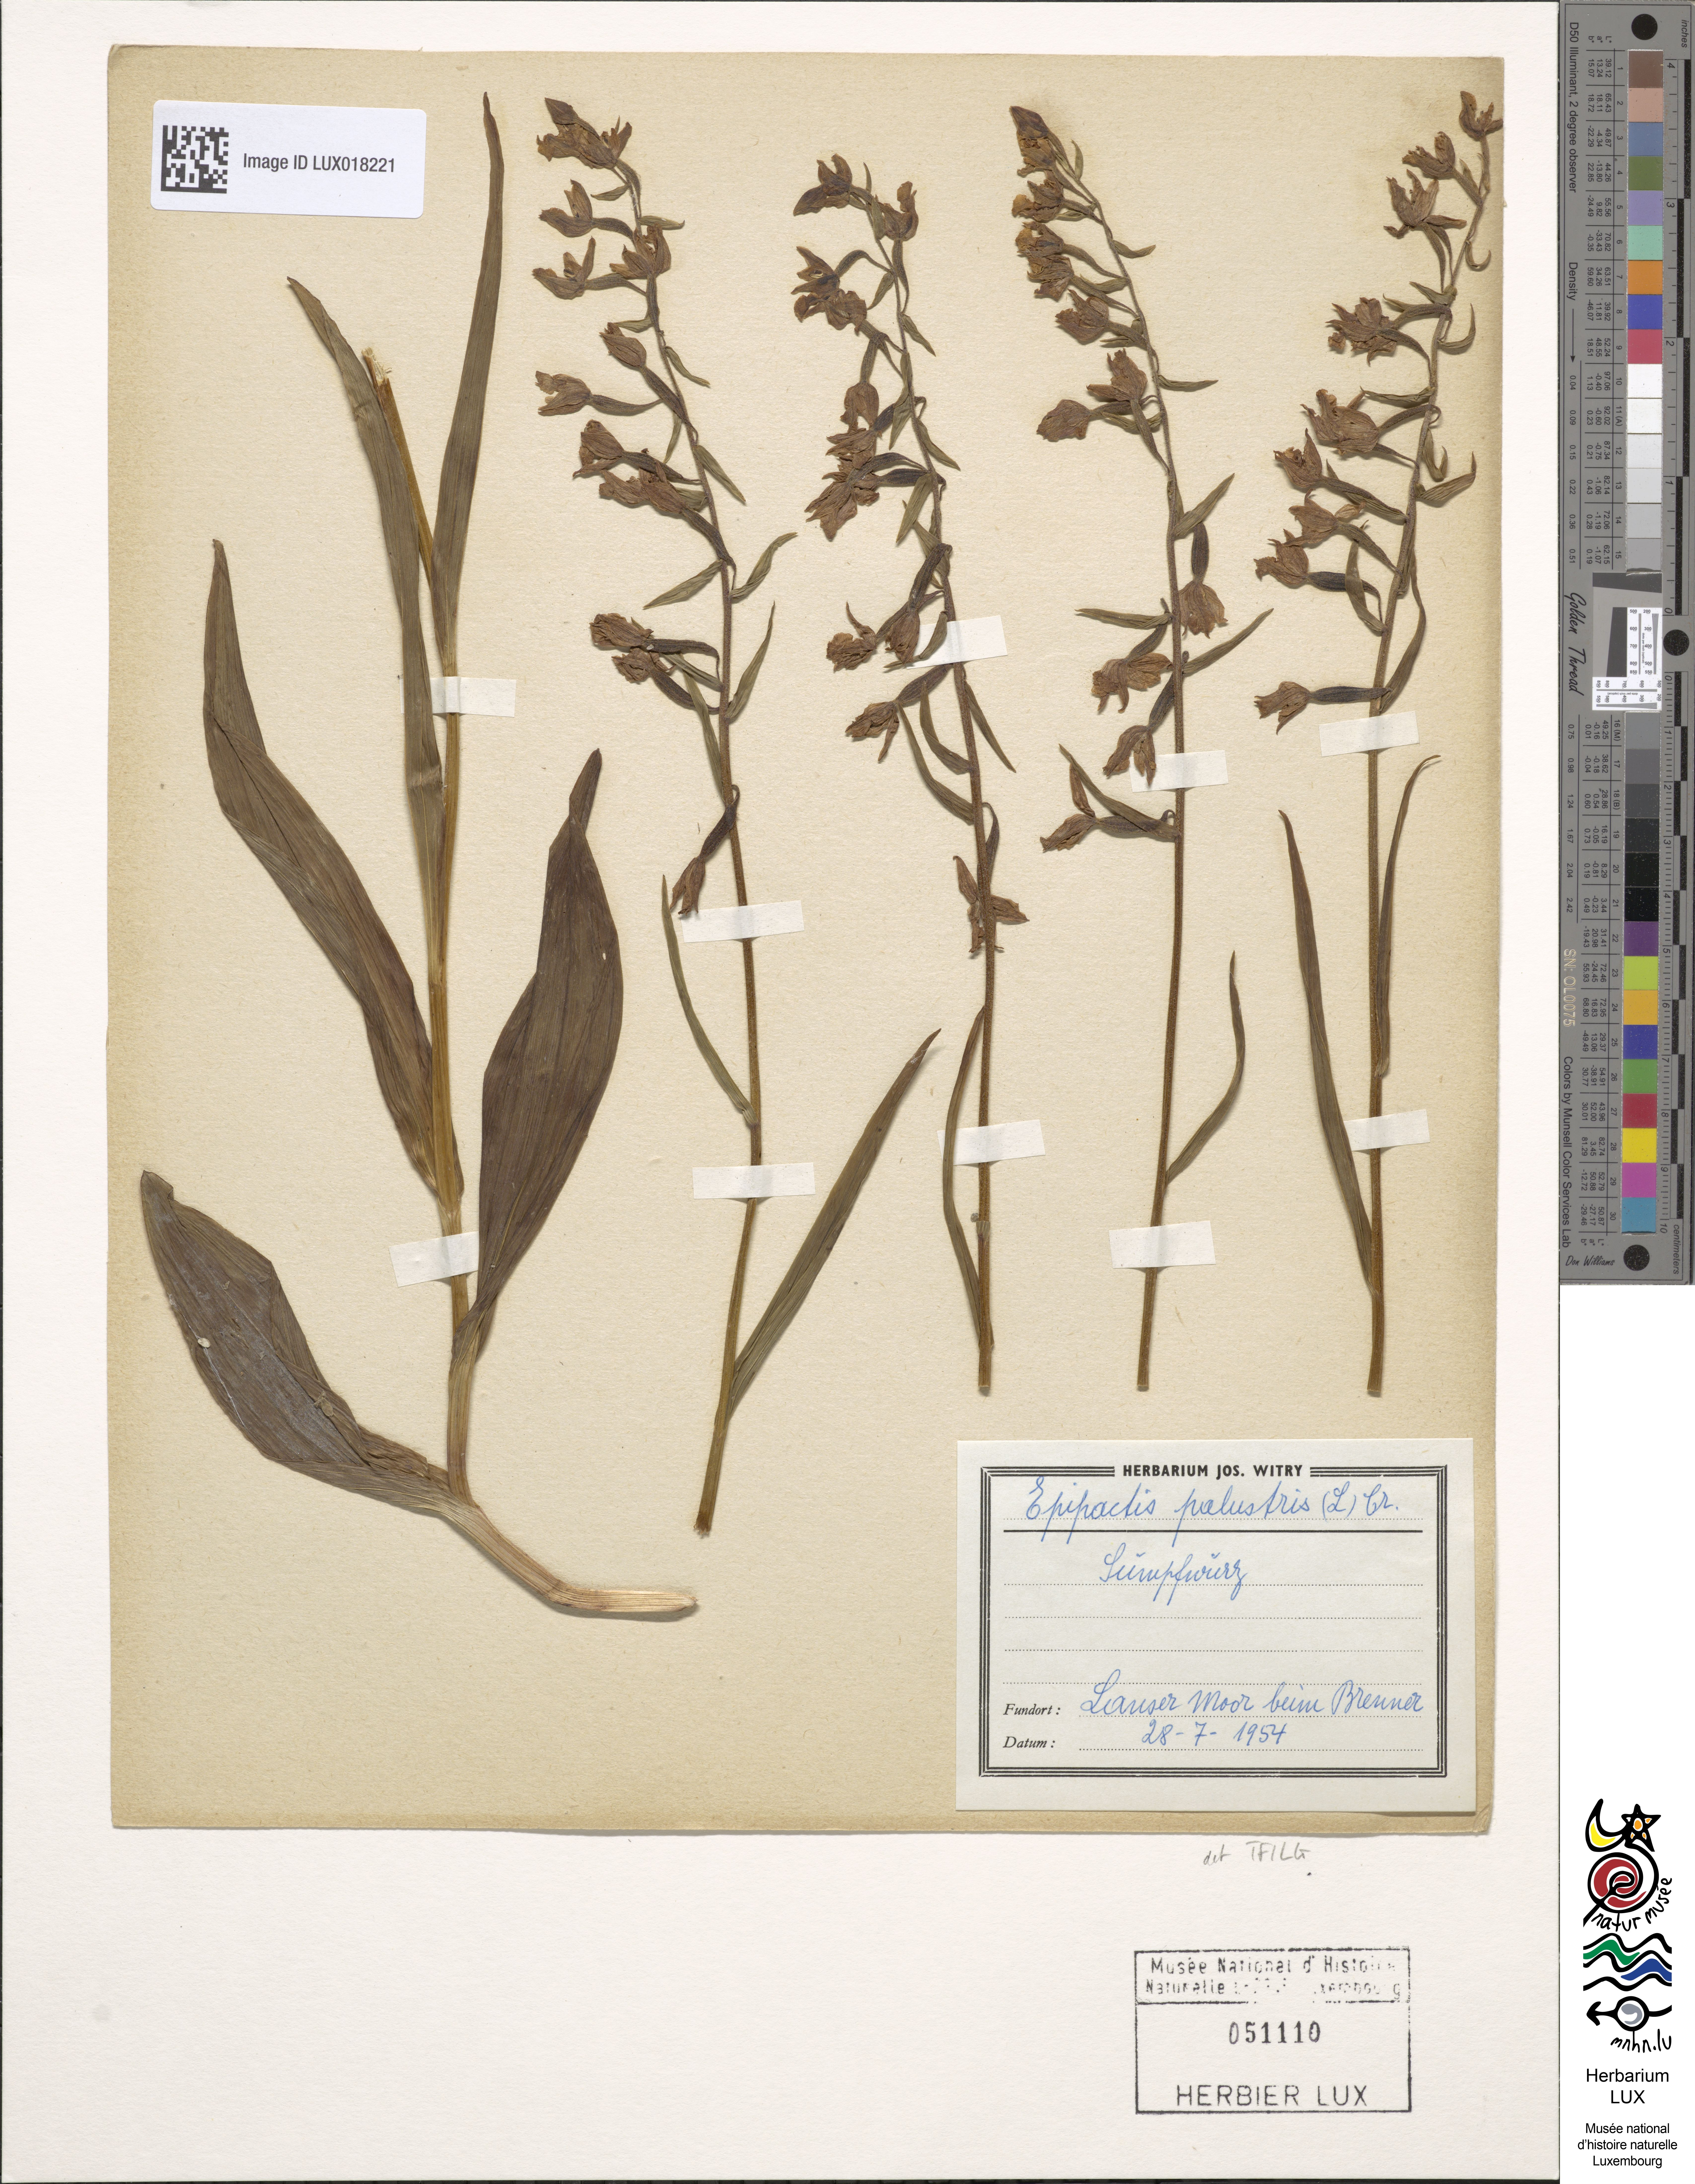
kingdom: Plantae
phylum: Tracheophyta
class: Liliopsida
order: Asparagales
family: Orchidaceae
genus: Epipactis
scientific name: Epipactis palustris
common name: Marsh helleborine
